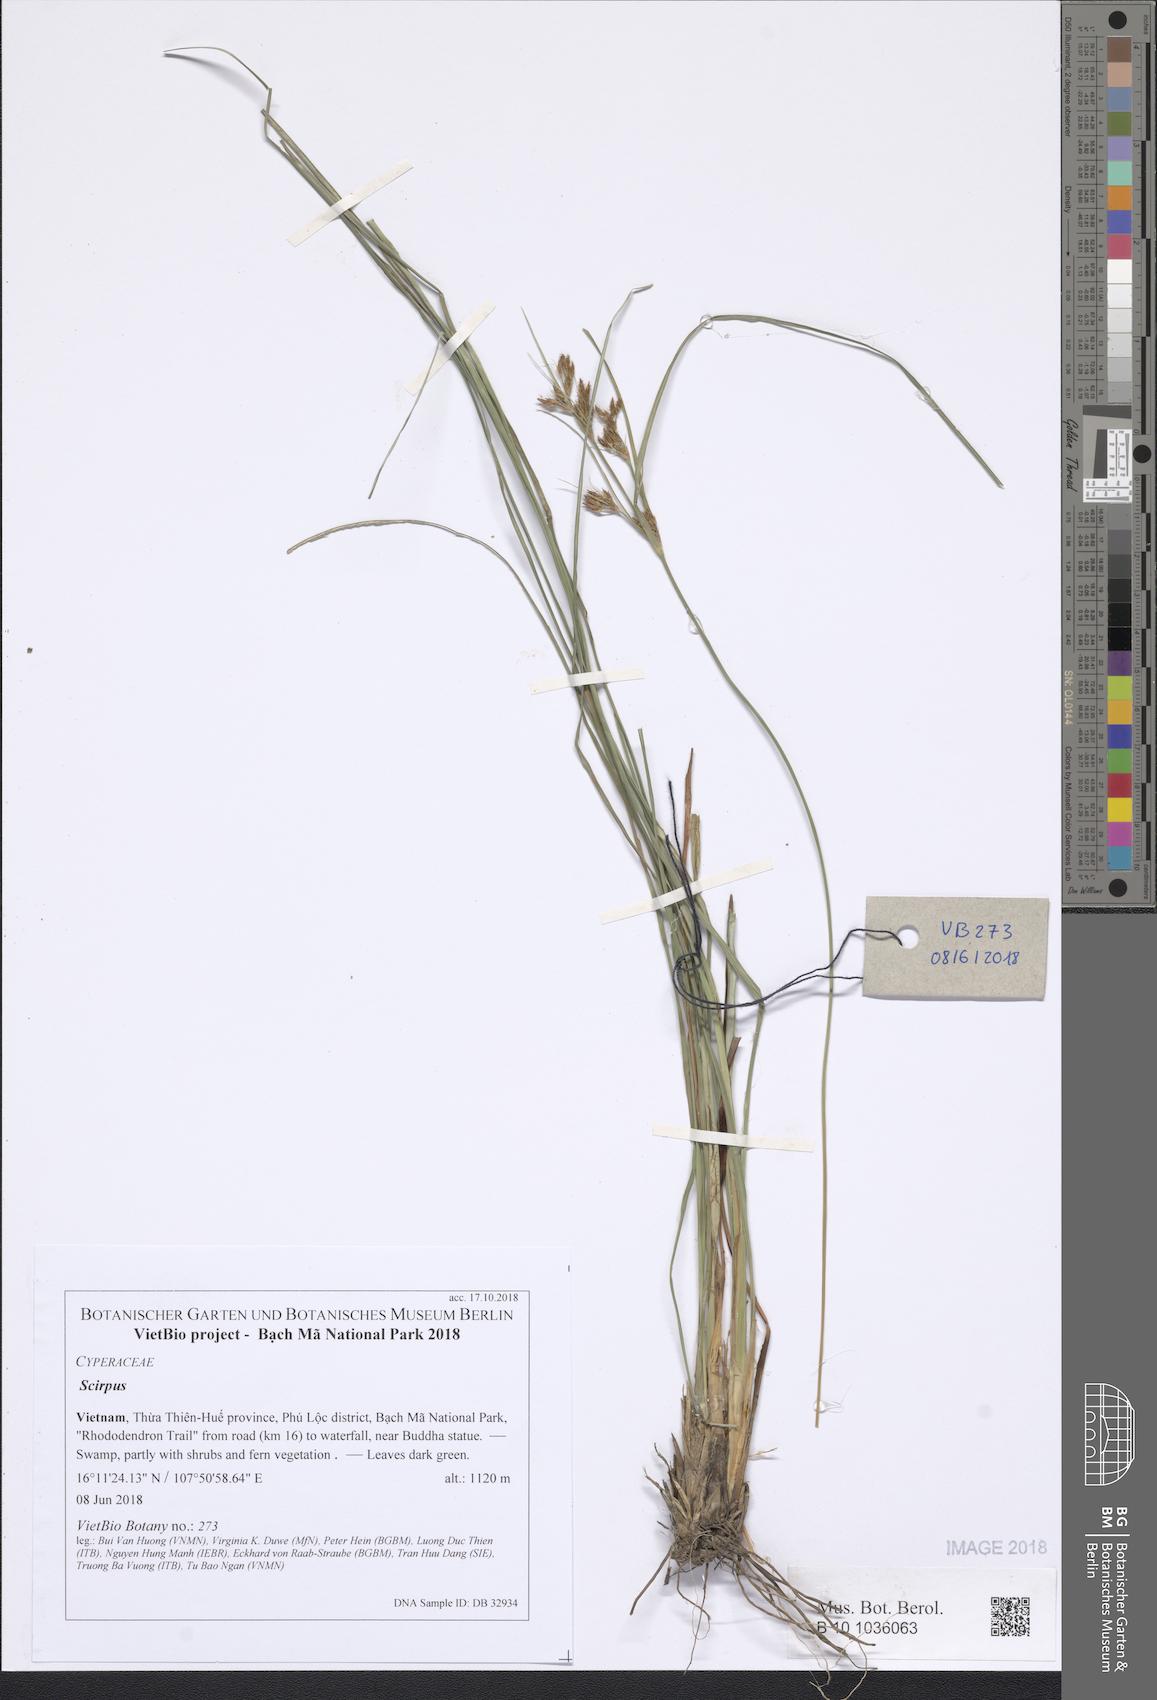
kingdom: Plantae
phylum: Tracheophyta
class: Liliopsida
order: Poales
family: Cyperaceae
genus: Scirpus
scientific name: Scirpus
